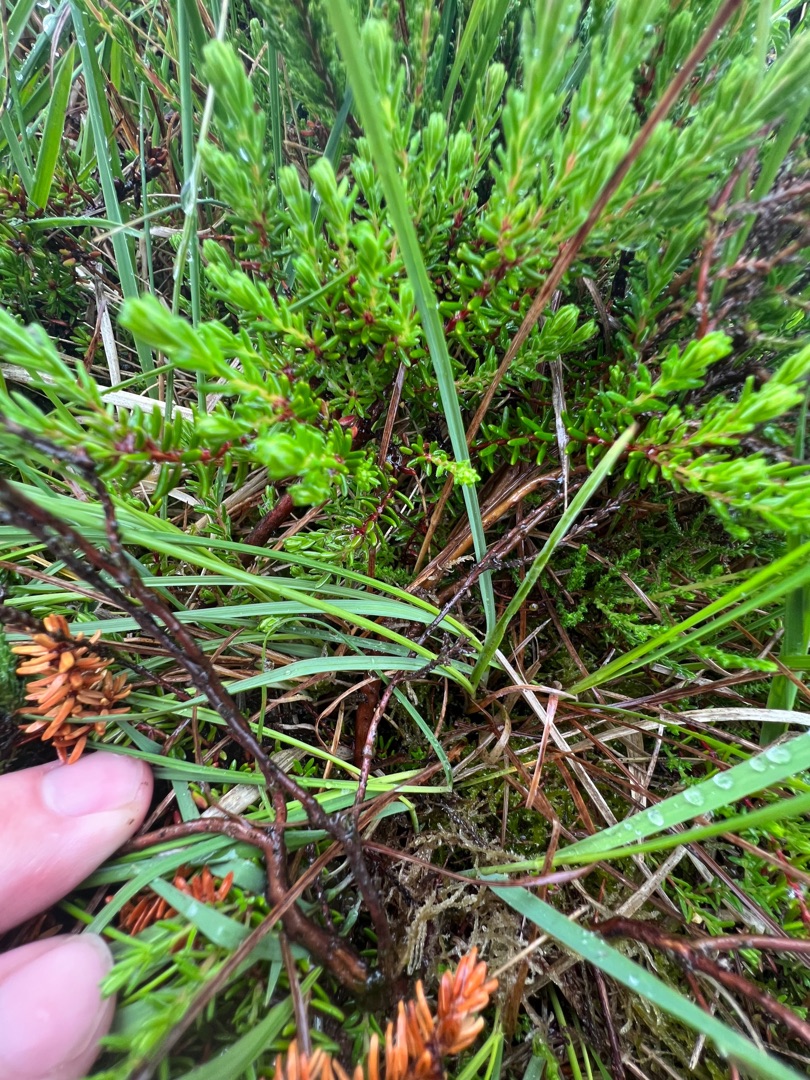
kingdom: Plantae
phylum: Tracheophyta
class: Liliopsida
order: Poales
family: Cyperaceae
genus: Carex
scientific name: Carex nigra
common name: Almindelig star
